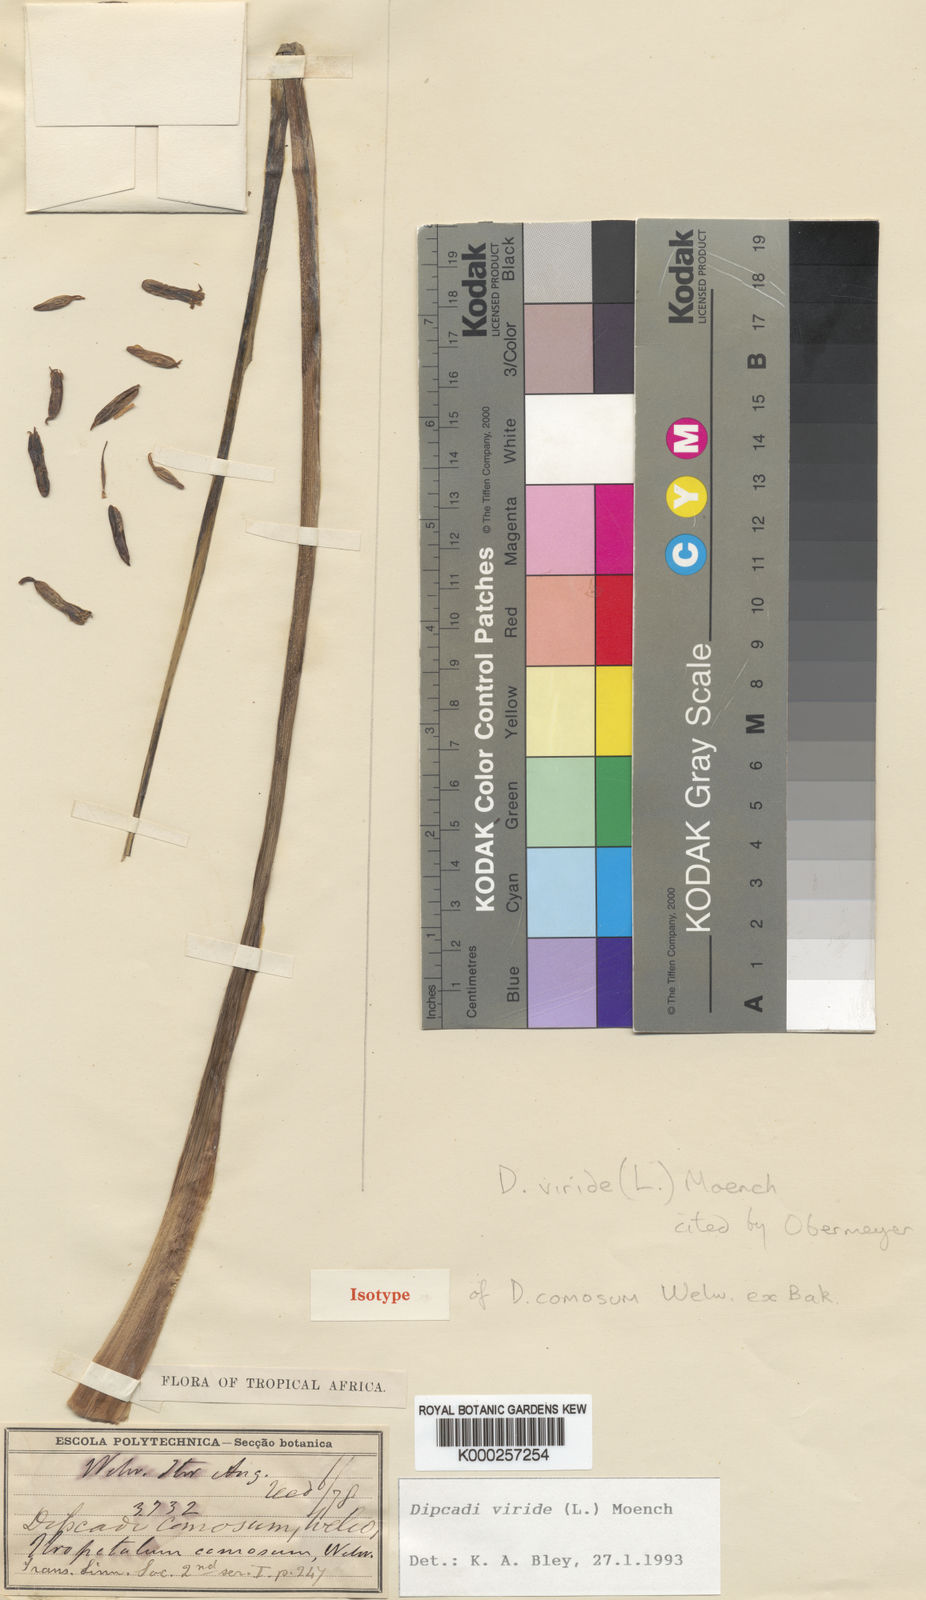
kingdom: Plantae
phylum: Tracheophyta
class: Liliopsida
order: Asparagales
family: Asparagaceae
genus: Dipcadi
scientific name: Dipcadi viride
